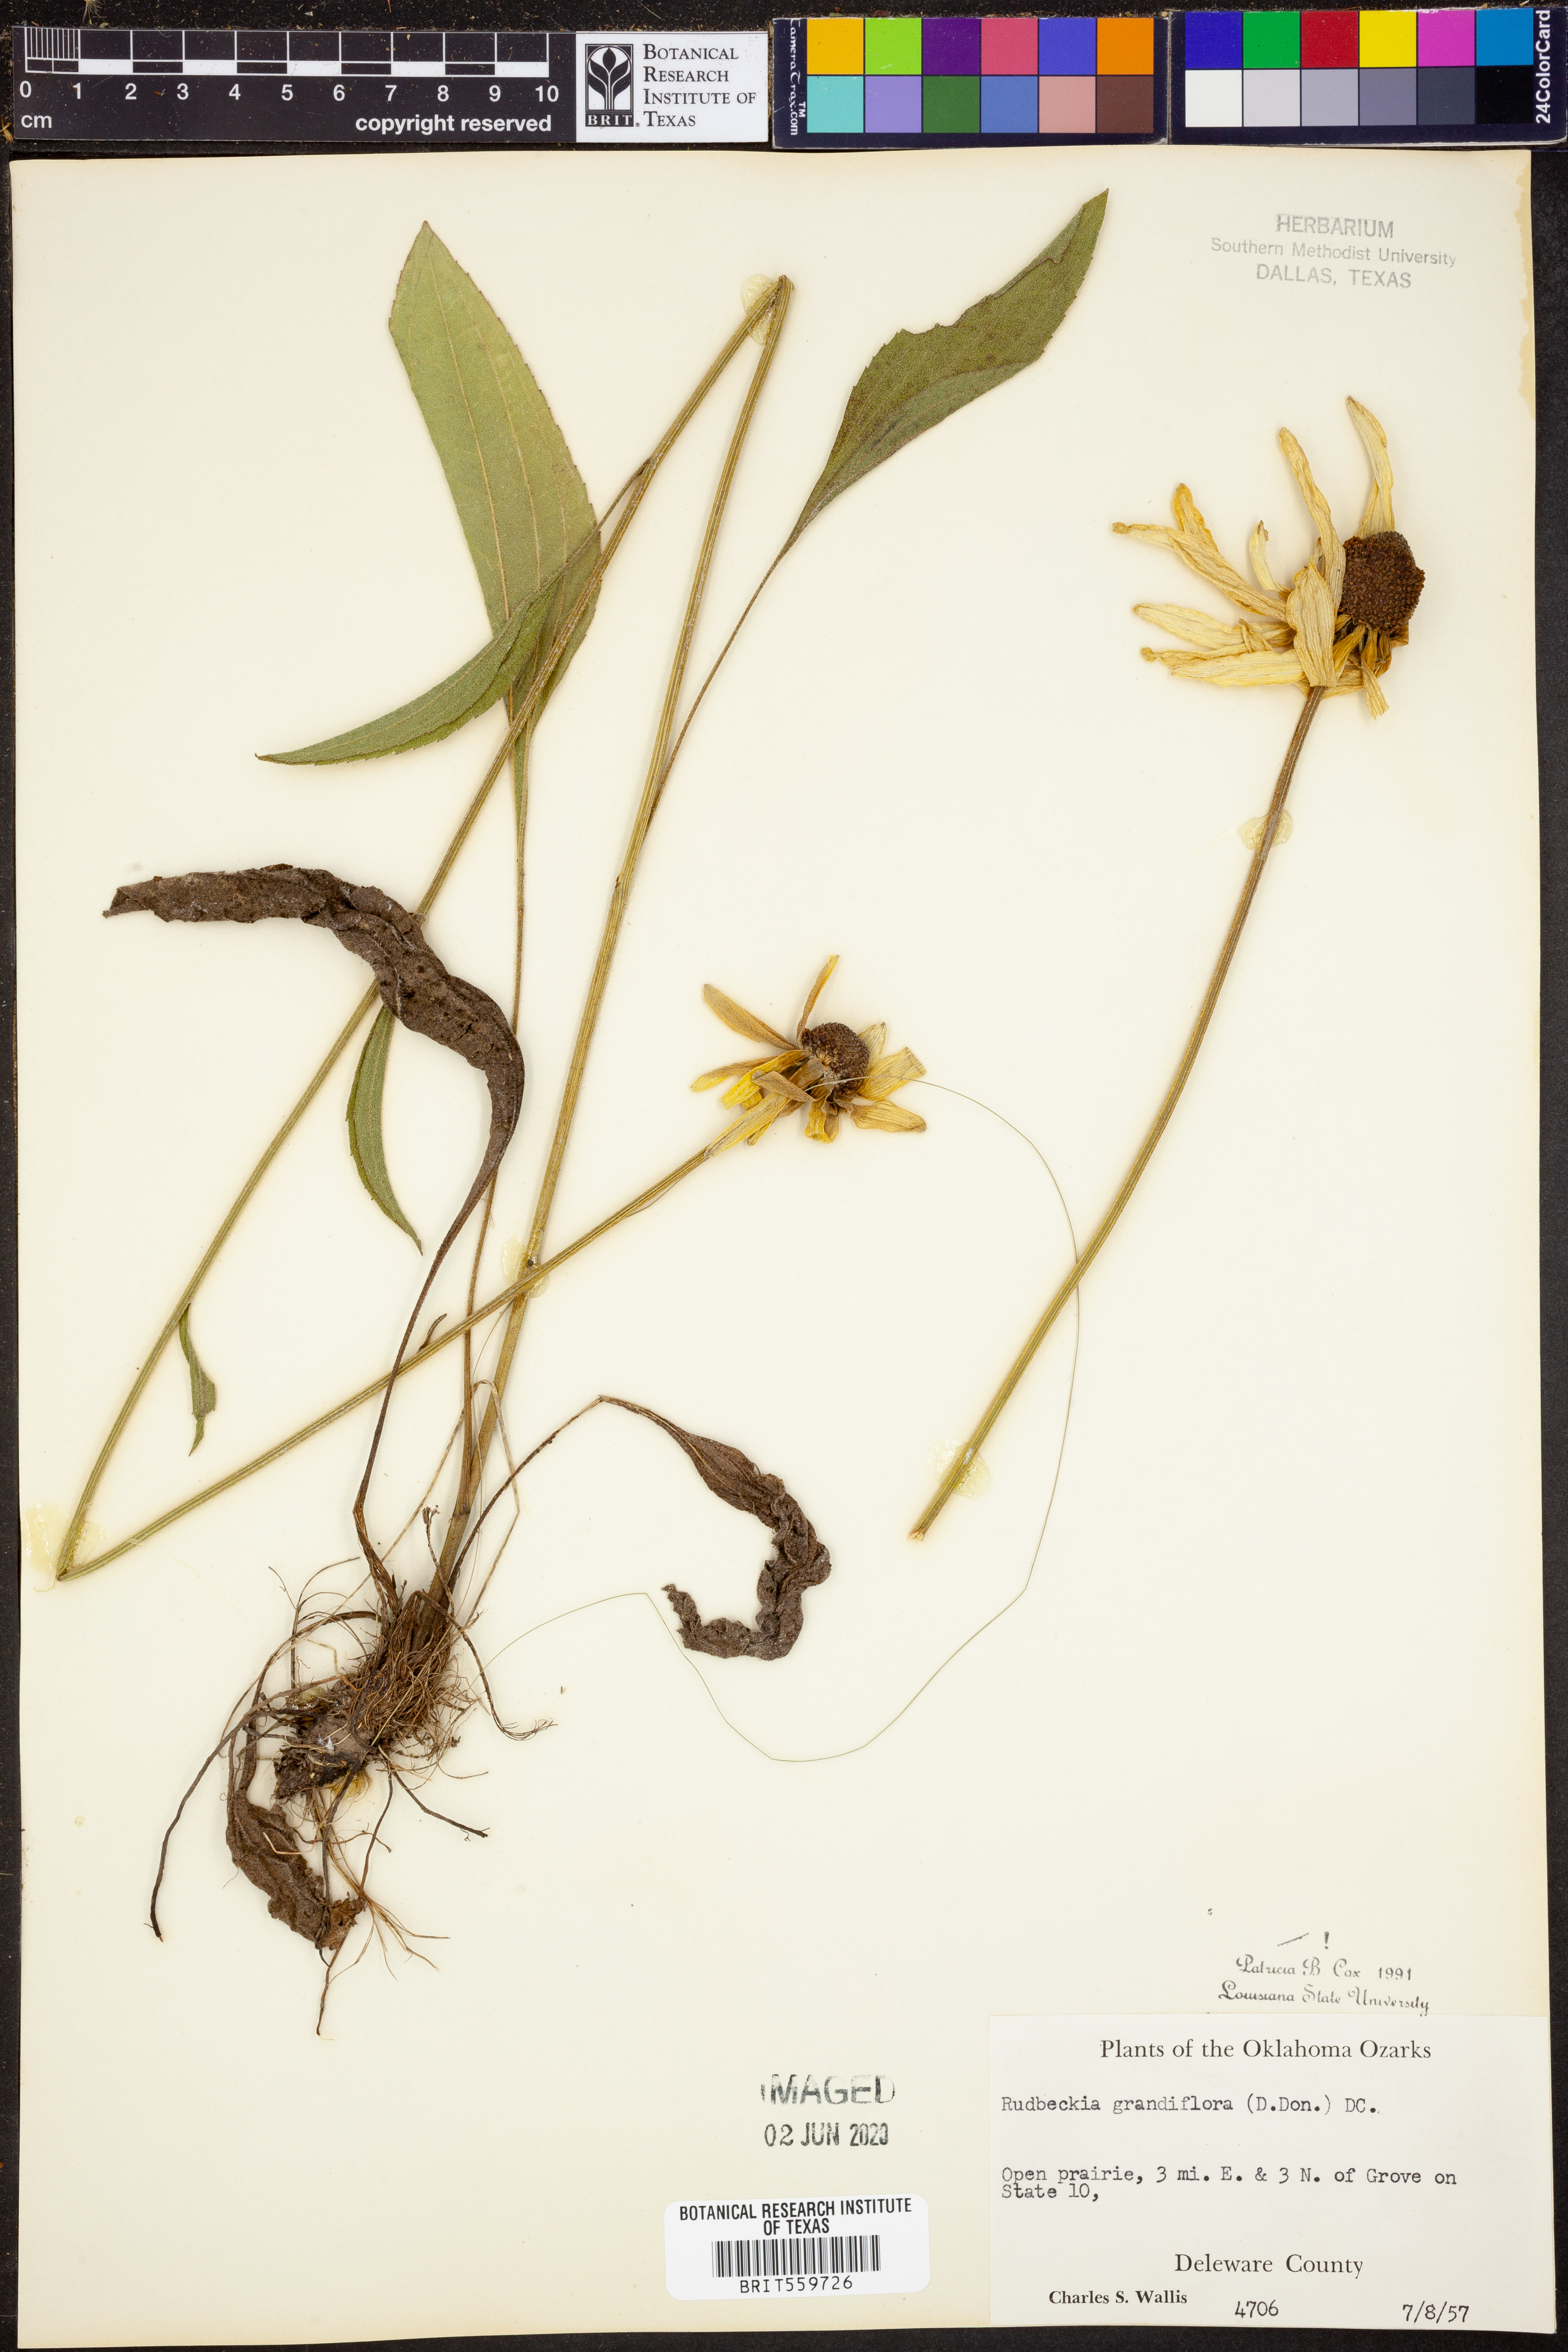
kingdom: Plantae
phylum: Tracheophyta
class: Magnoliopsida
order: Asterales
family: Asteraceae
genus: Rudbeckia
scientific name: Rudbeckia grandiflora
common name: Large-flowered coneflower
